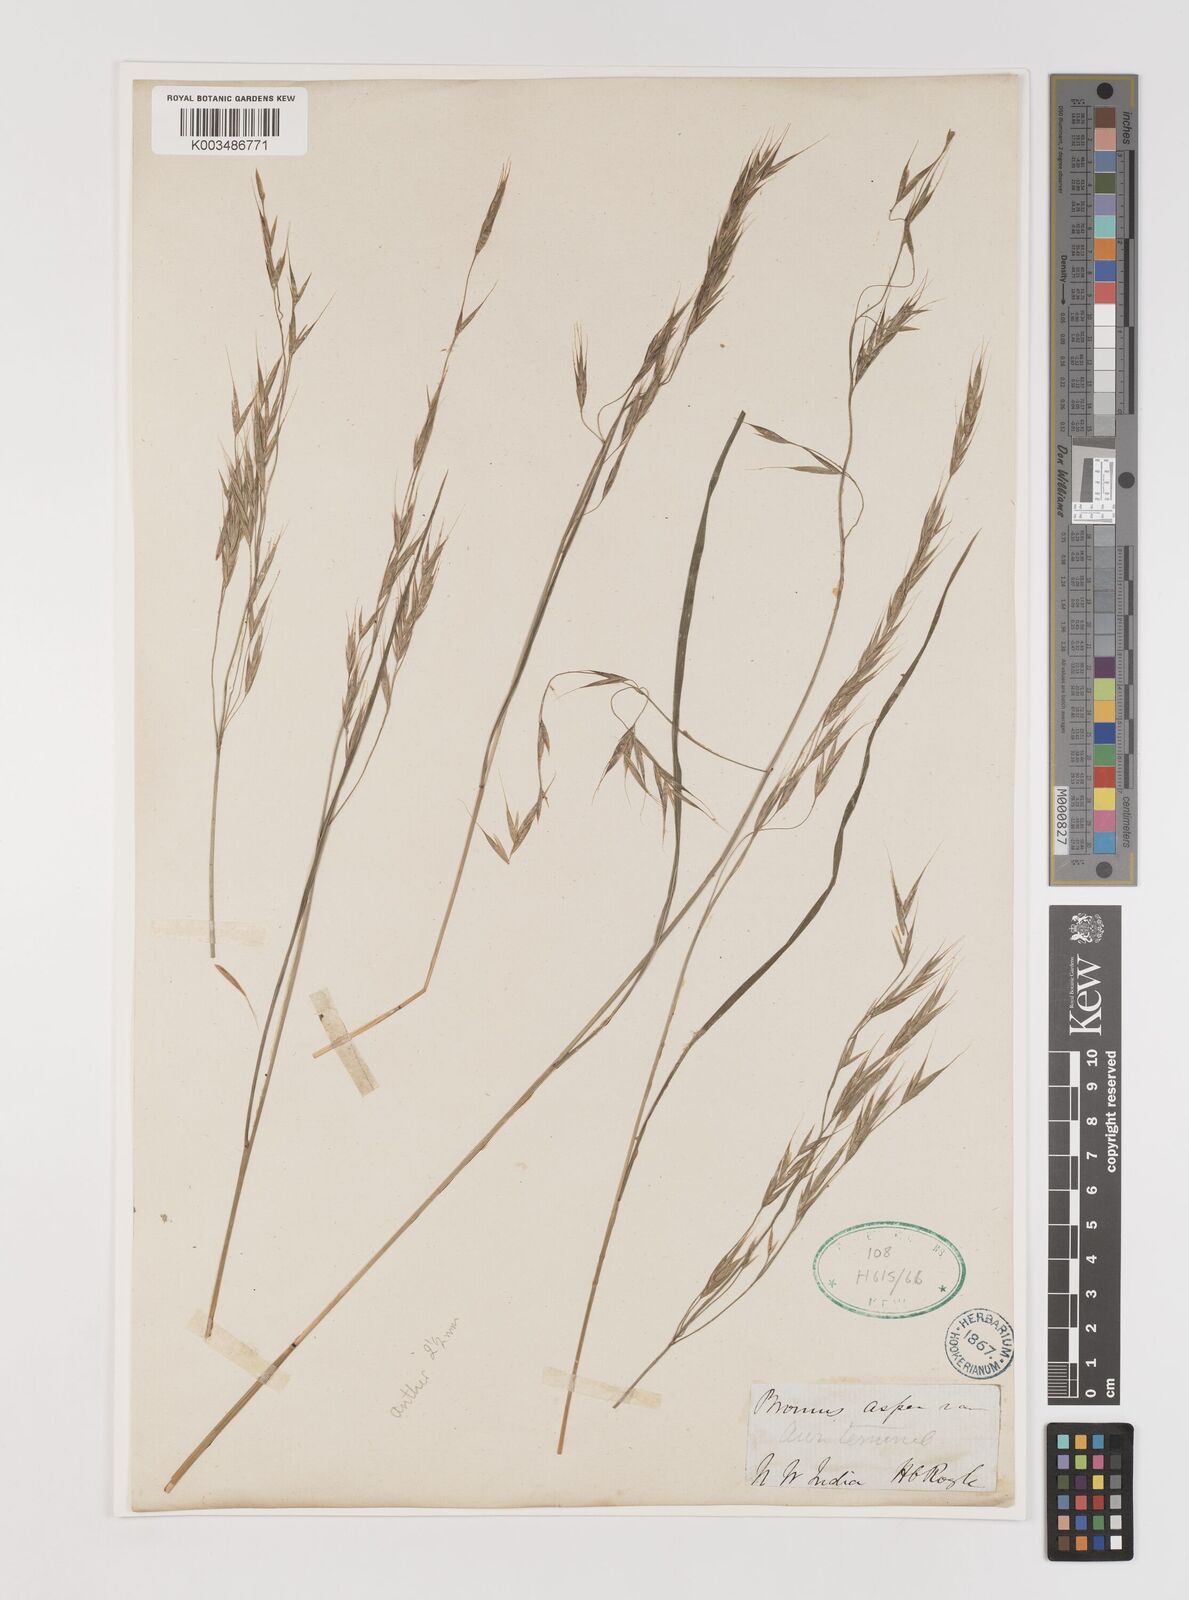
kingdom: Plantae
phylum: Tracheophyta
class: Liliopsida
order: Poales
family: Poaceae
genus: Brachypodium
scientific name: Brachypodium retusum
